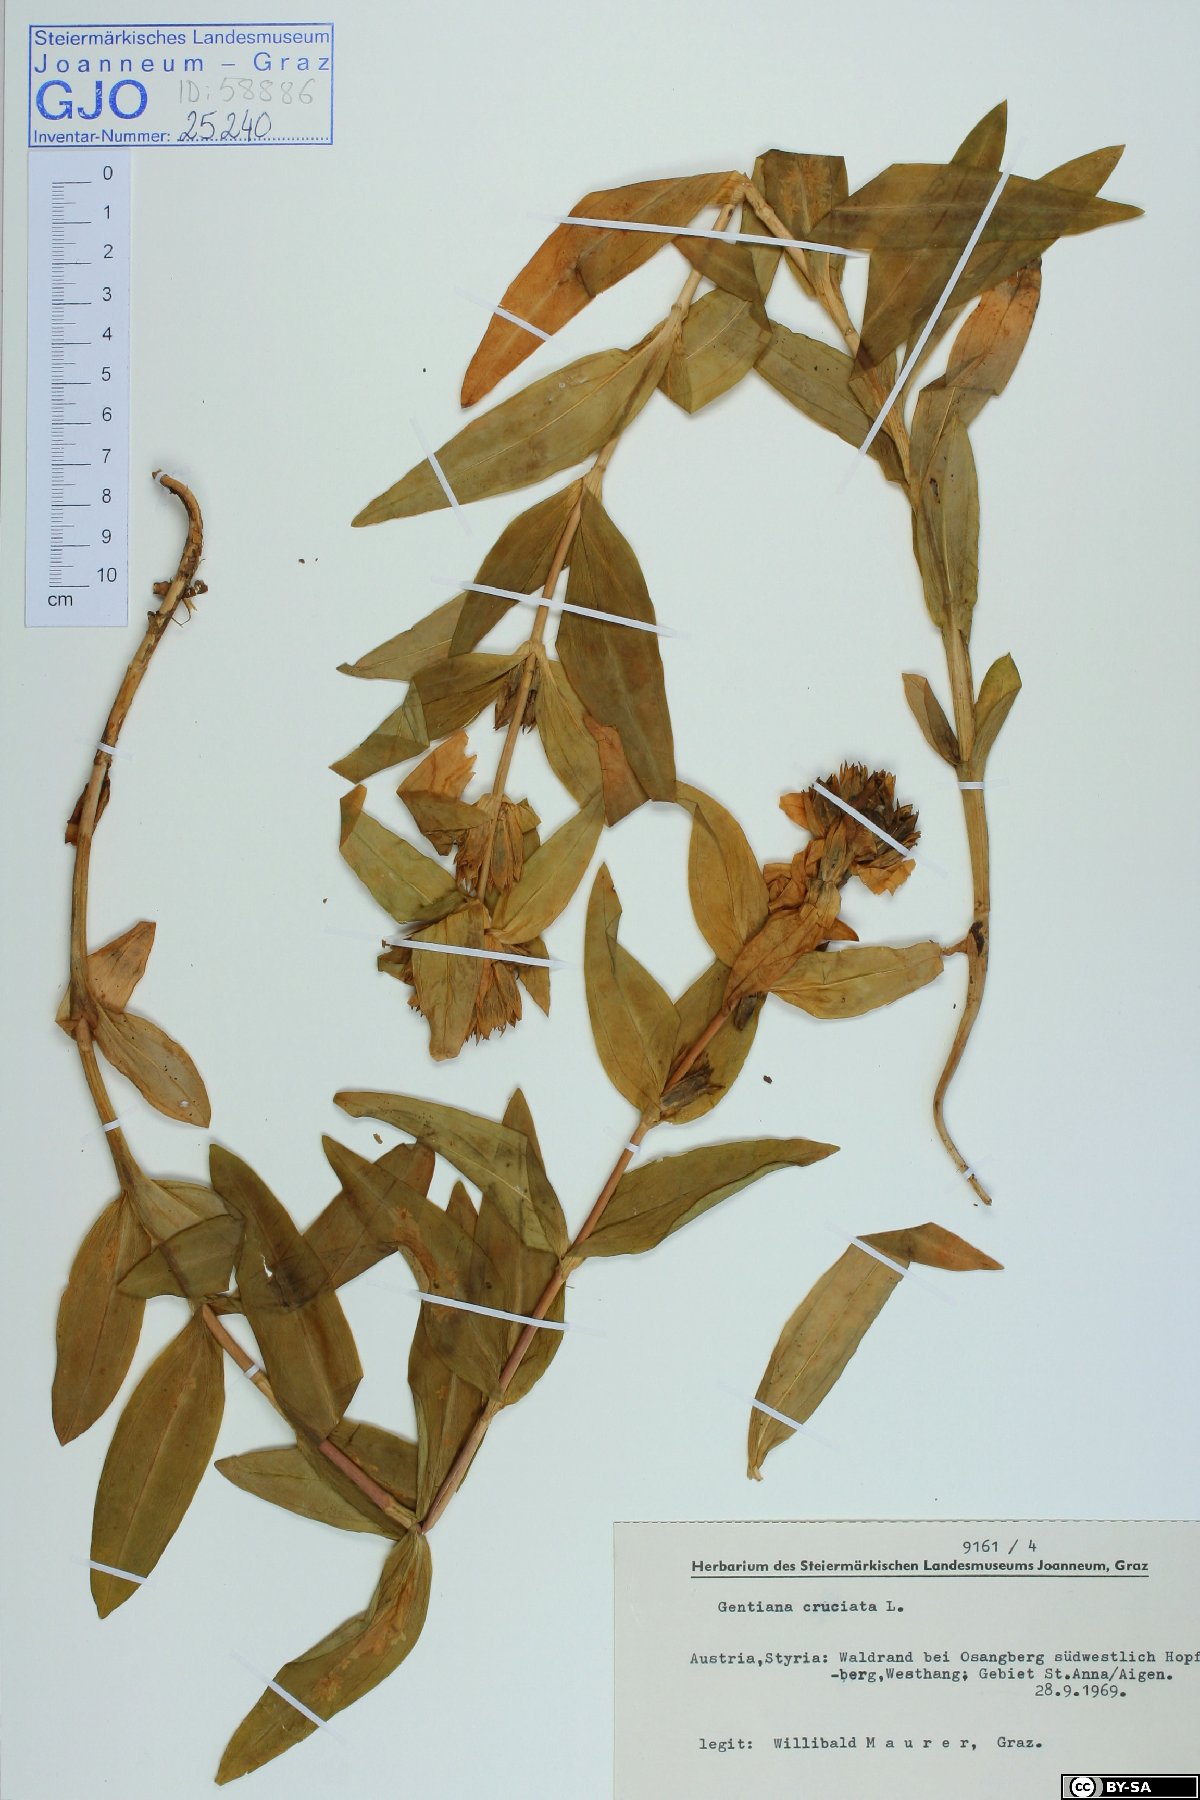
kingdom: Plantae
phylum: Tracheophyta
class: Magnoliopsida
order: Gentianales
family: Gentianaceae
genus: Gentiana
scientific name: Gentiana cruciata
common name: Cross gentian
